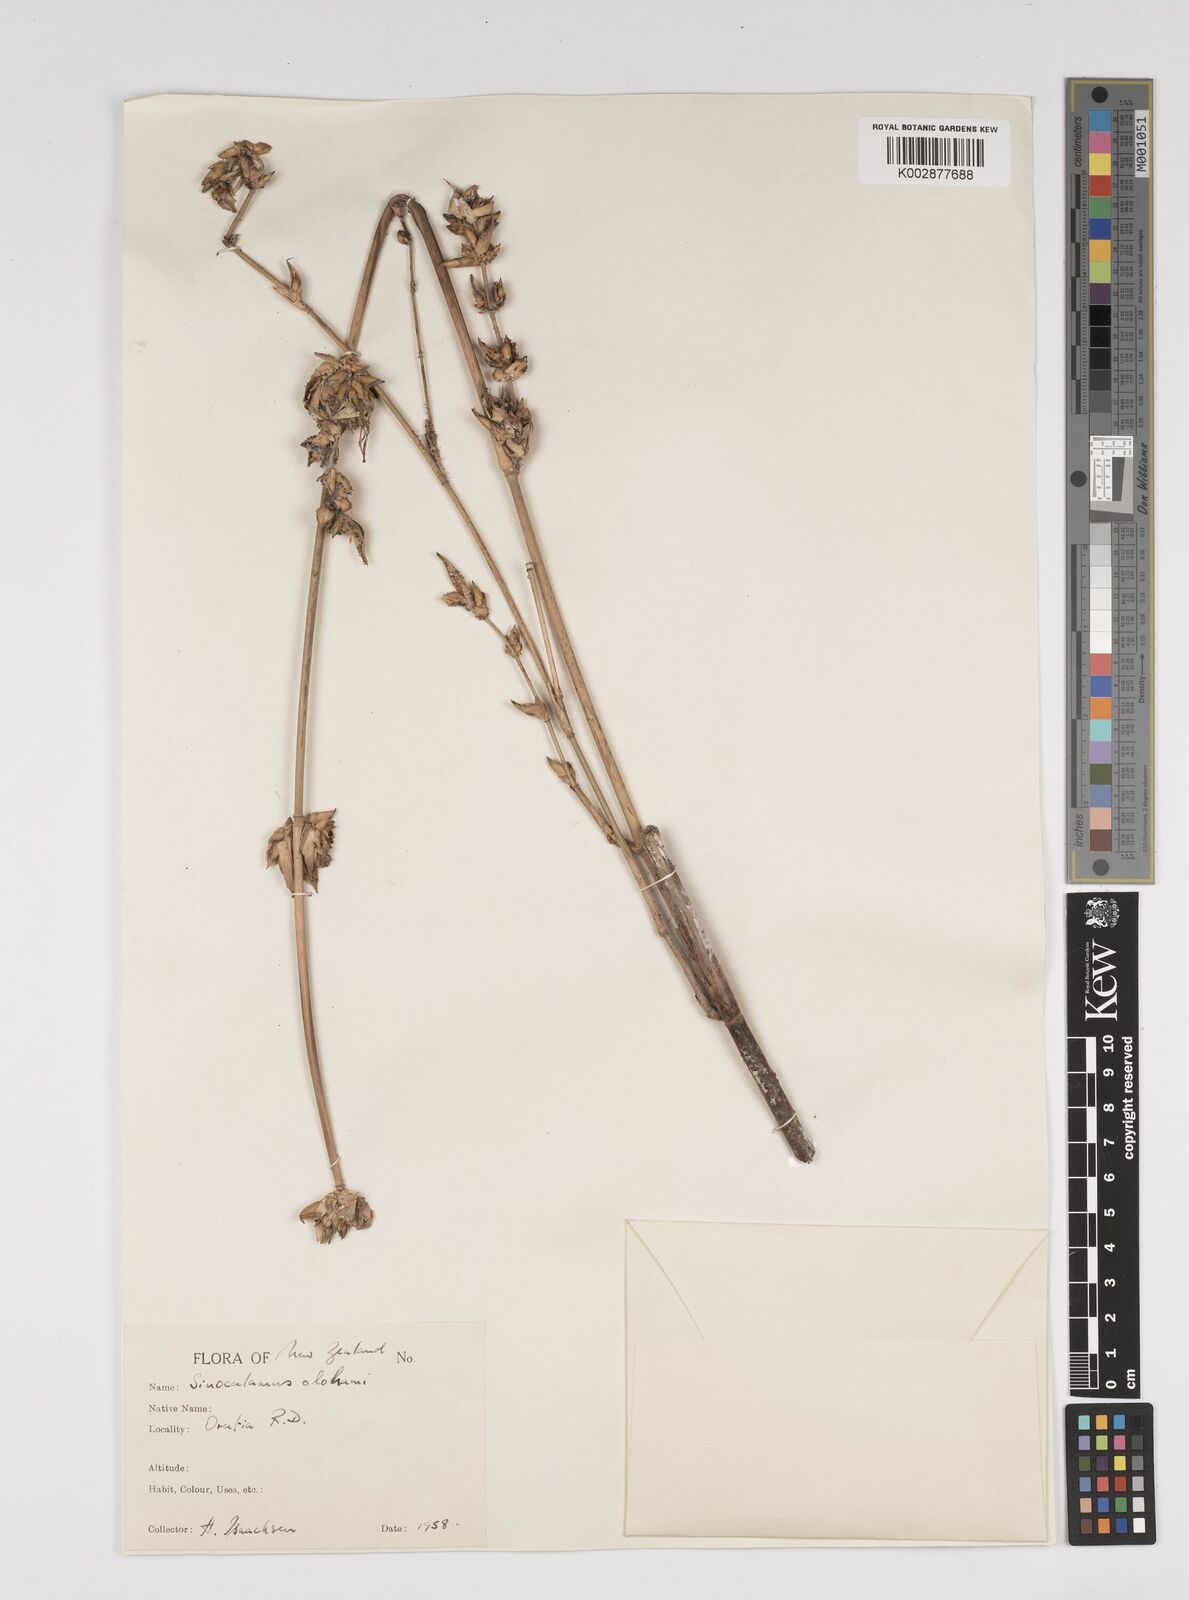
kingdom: Plantae
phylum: Tracheophyta
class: Liliopsida
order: Poales
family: Poaceae
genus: Bambusa
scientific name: Bambusa oldhamii
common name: Giant timber bamboo
